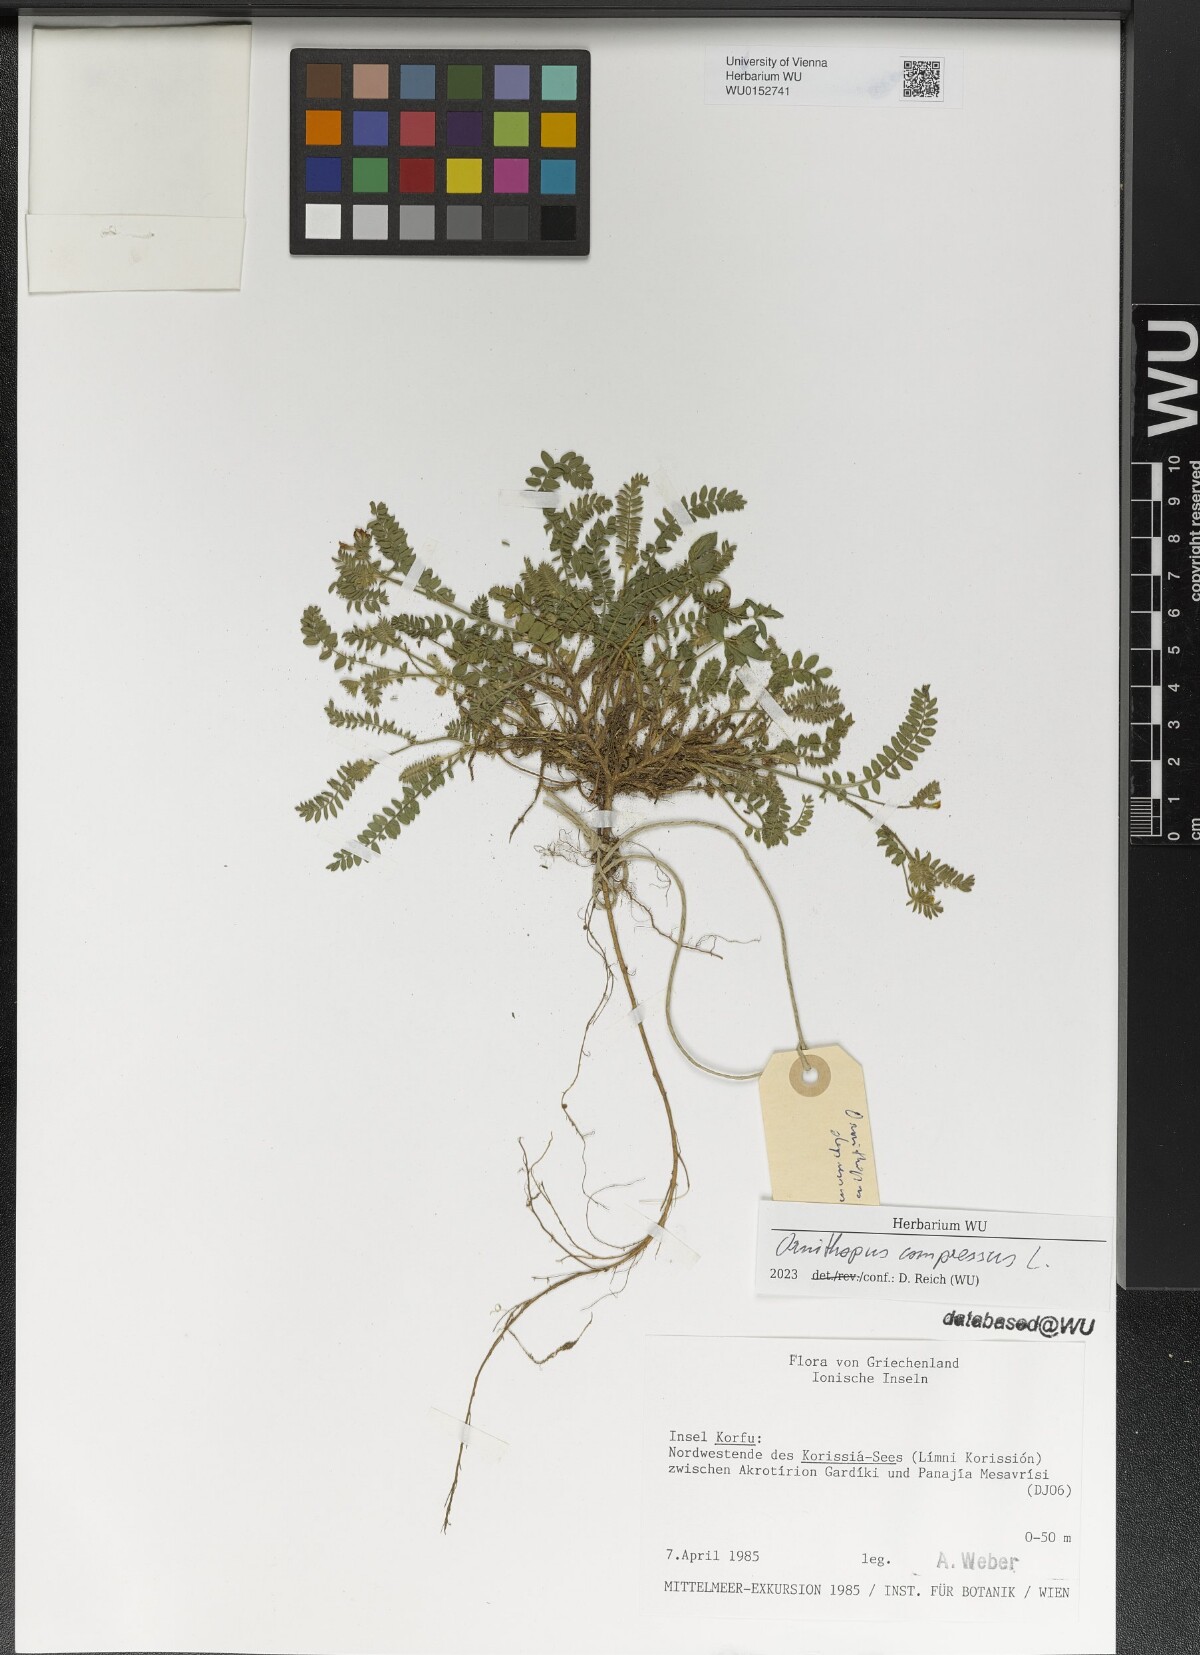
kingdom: Plantae
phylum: Tracheophyta
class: Magnoliopsida
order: Fabales
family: Fabaceae
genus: Ornithopus
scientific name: Ornithopus compressus
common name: Yellow serradella
